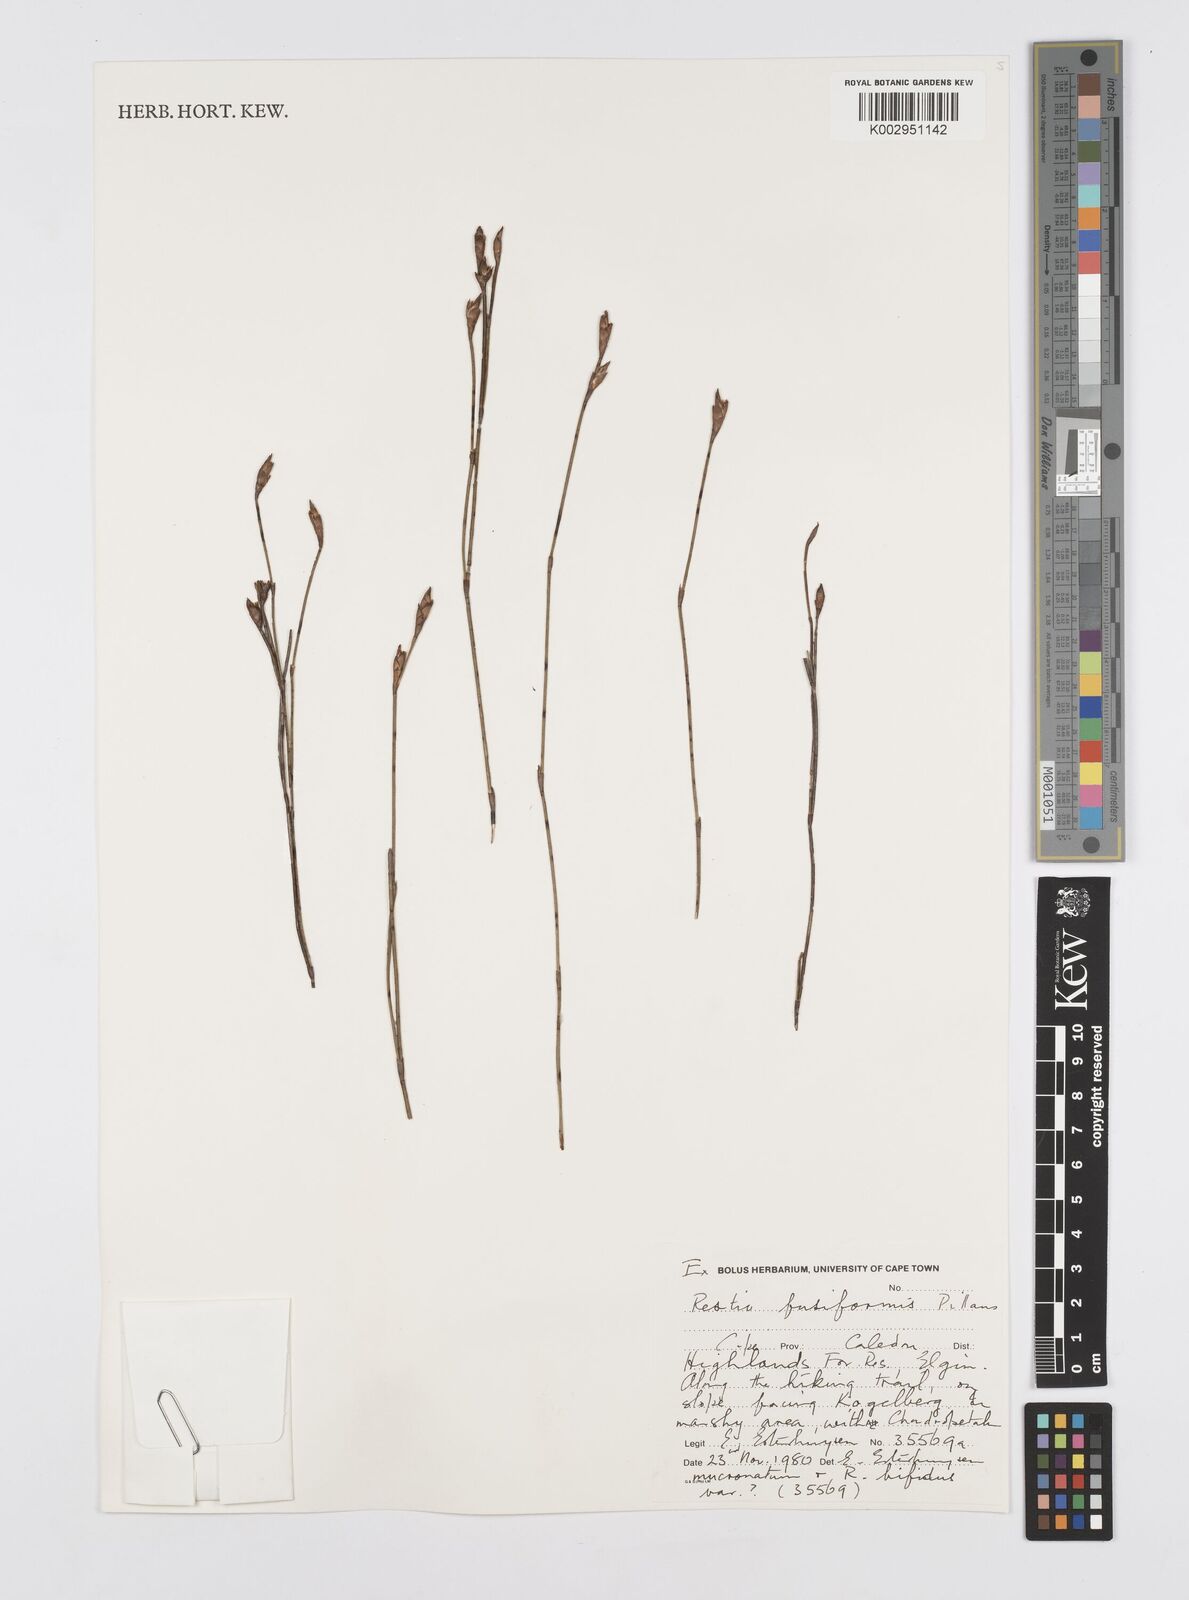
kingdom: Plantae
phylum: Tracheophyta
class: Liliopsida
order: Poales
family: Restionaceae
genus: Restio
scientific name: Restio fusiformis
